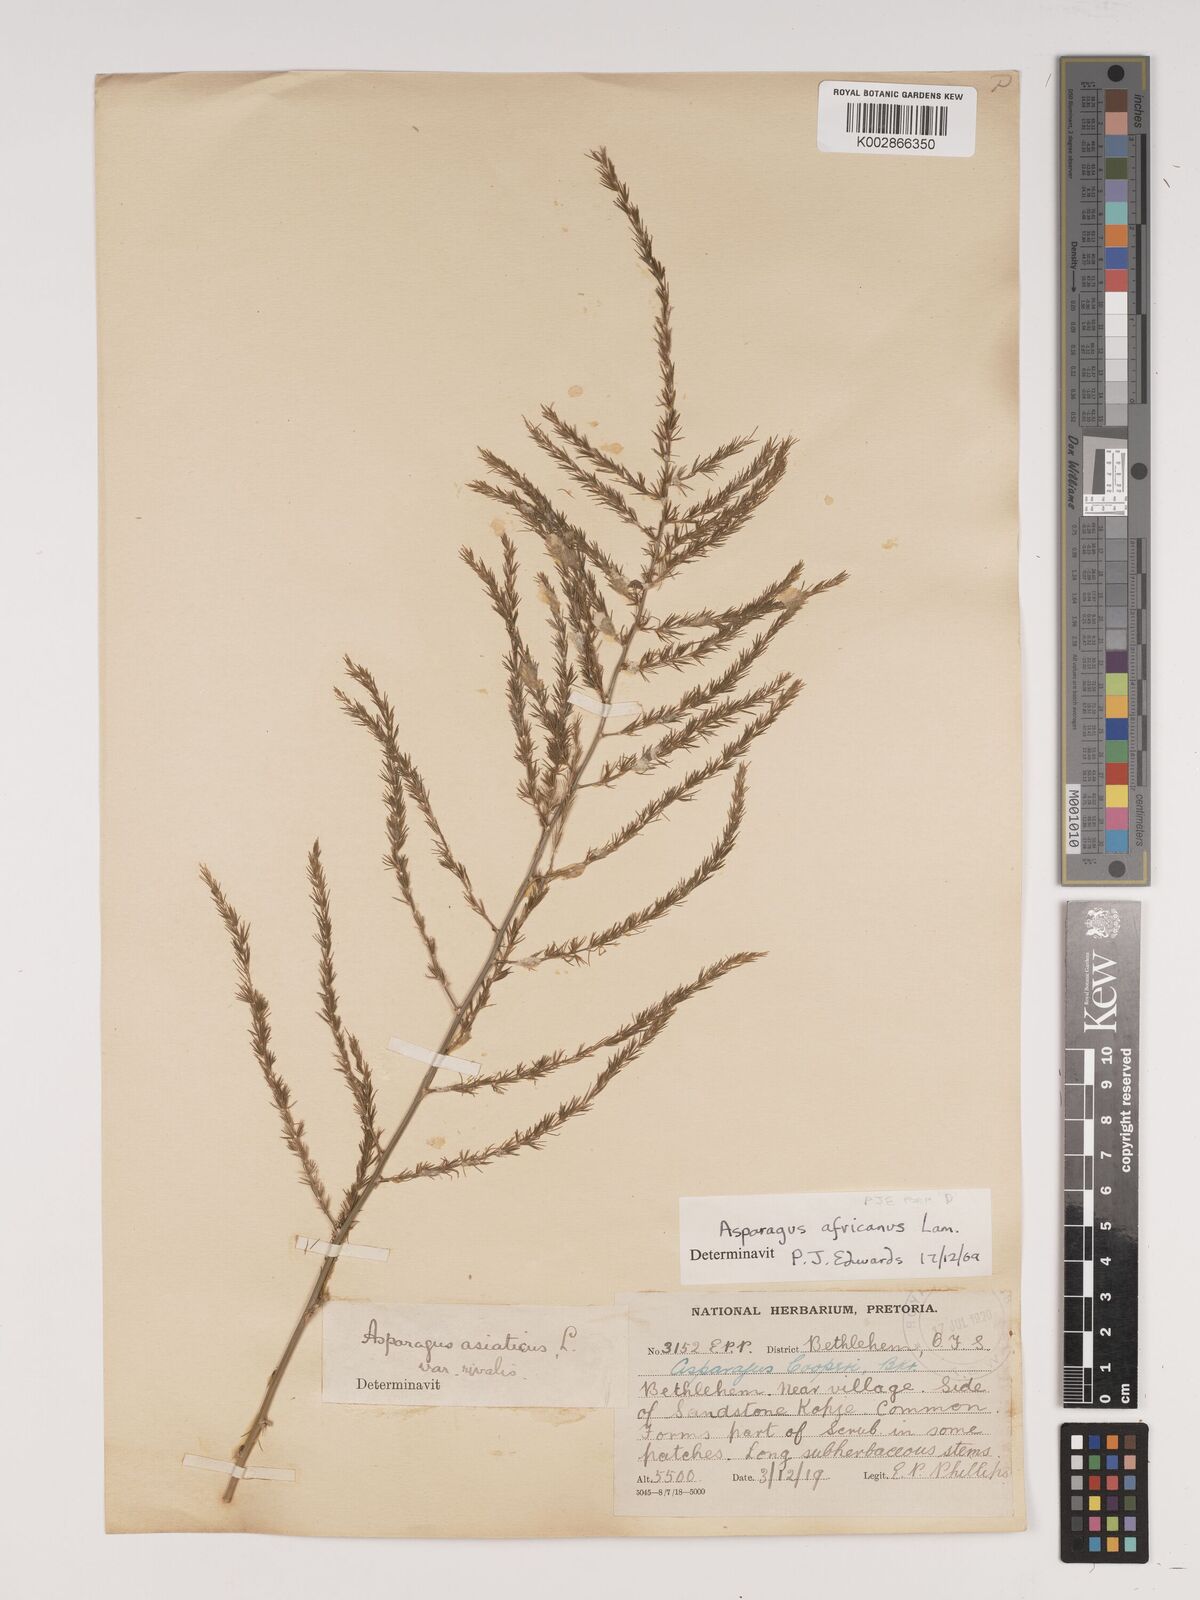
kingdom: Plantae
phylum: Tracheophyta
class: Liliopsida
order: Asparagales
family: Asparagaceae
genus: Asparagus
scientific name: Asparagus africanus
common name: Asparagus-fern
